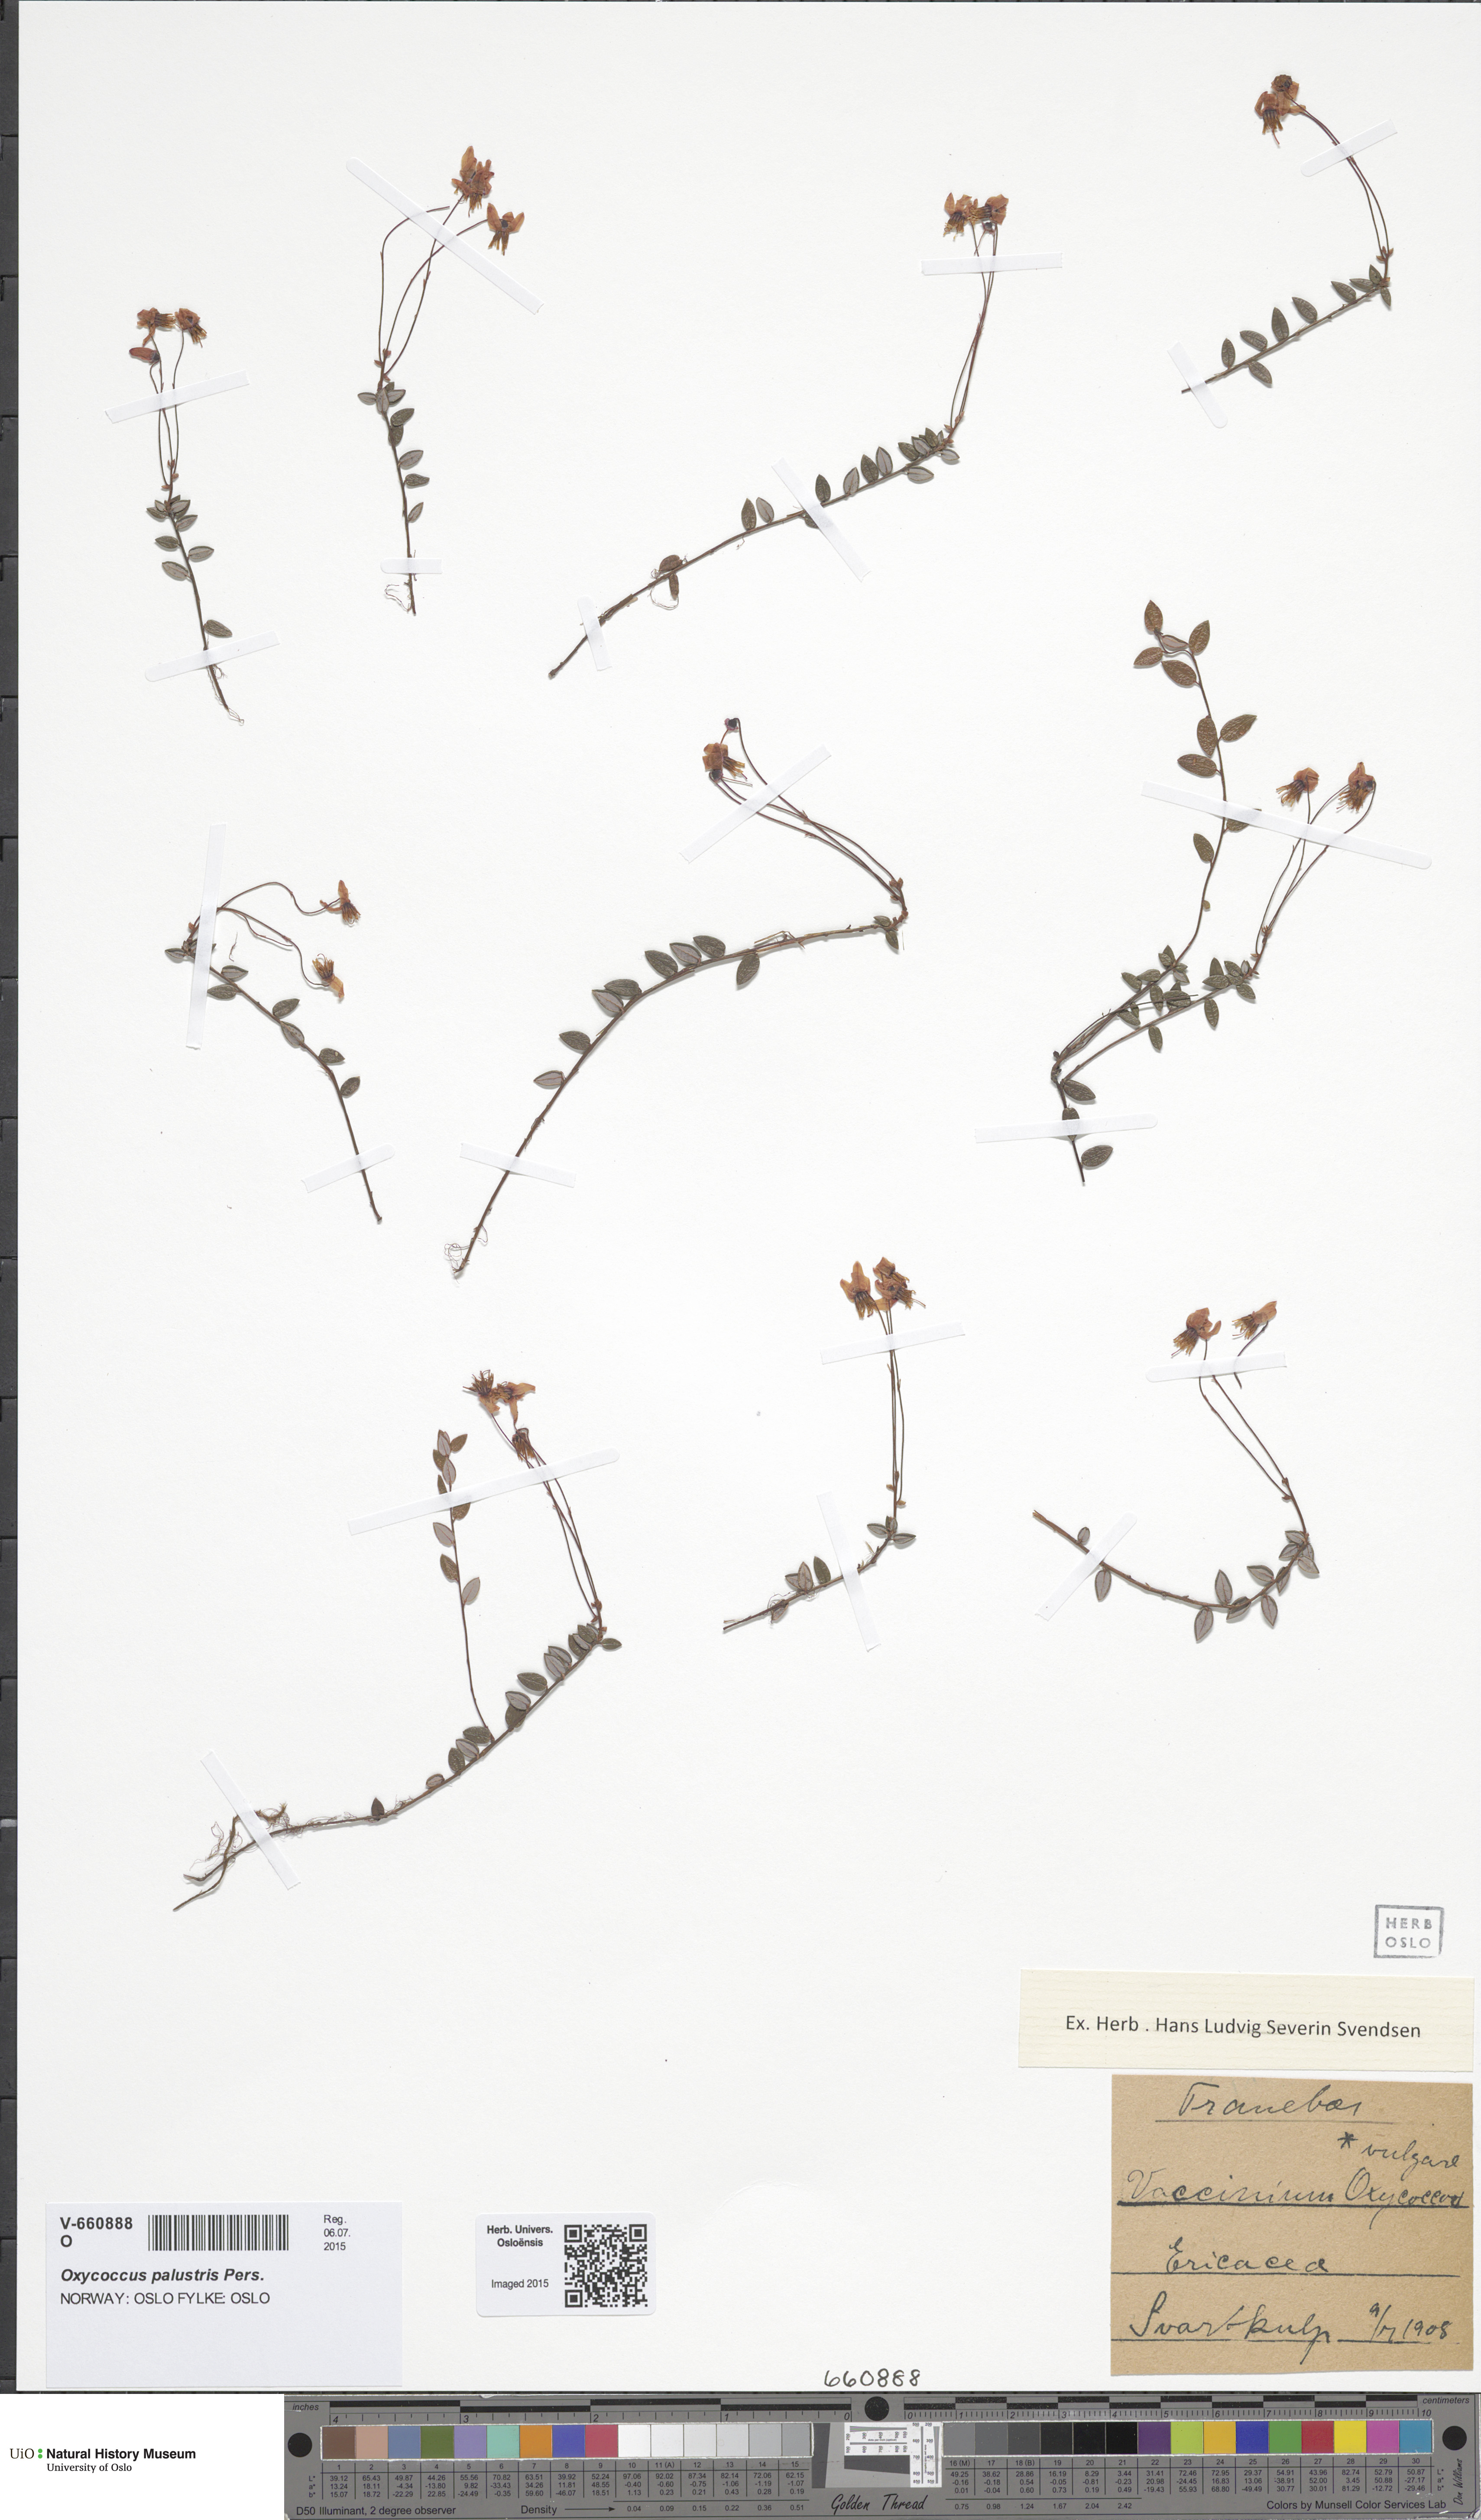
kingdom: Plantae
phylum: Tracheophyta
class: Magnoliopsida
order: Ericales
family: Ericaceae
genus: Vaccinium
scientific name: Vaccinium oxycoccos
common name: Cranberry
